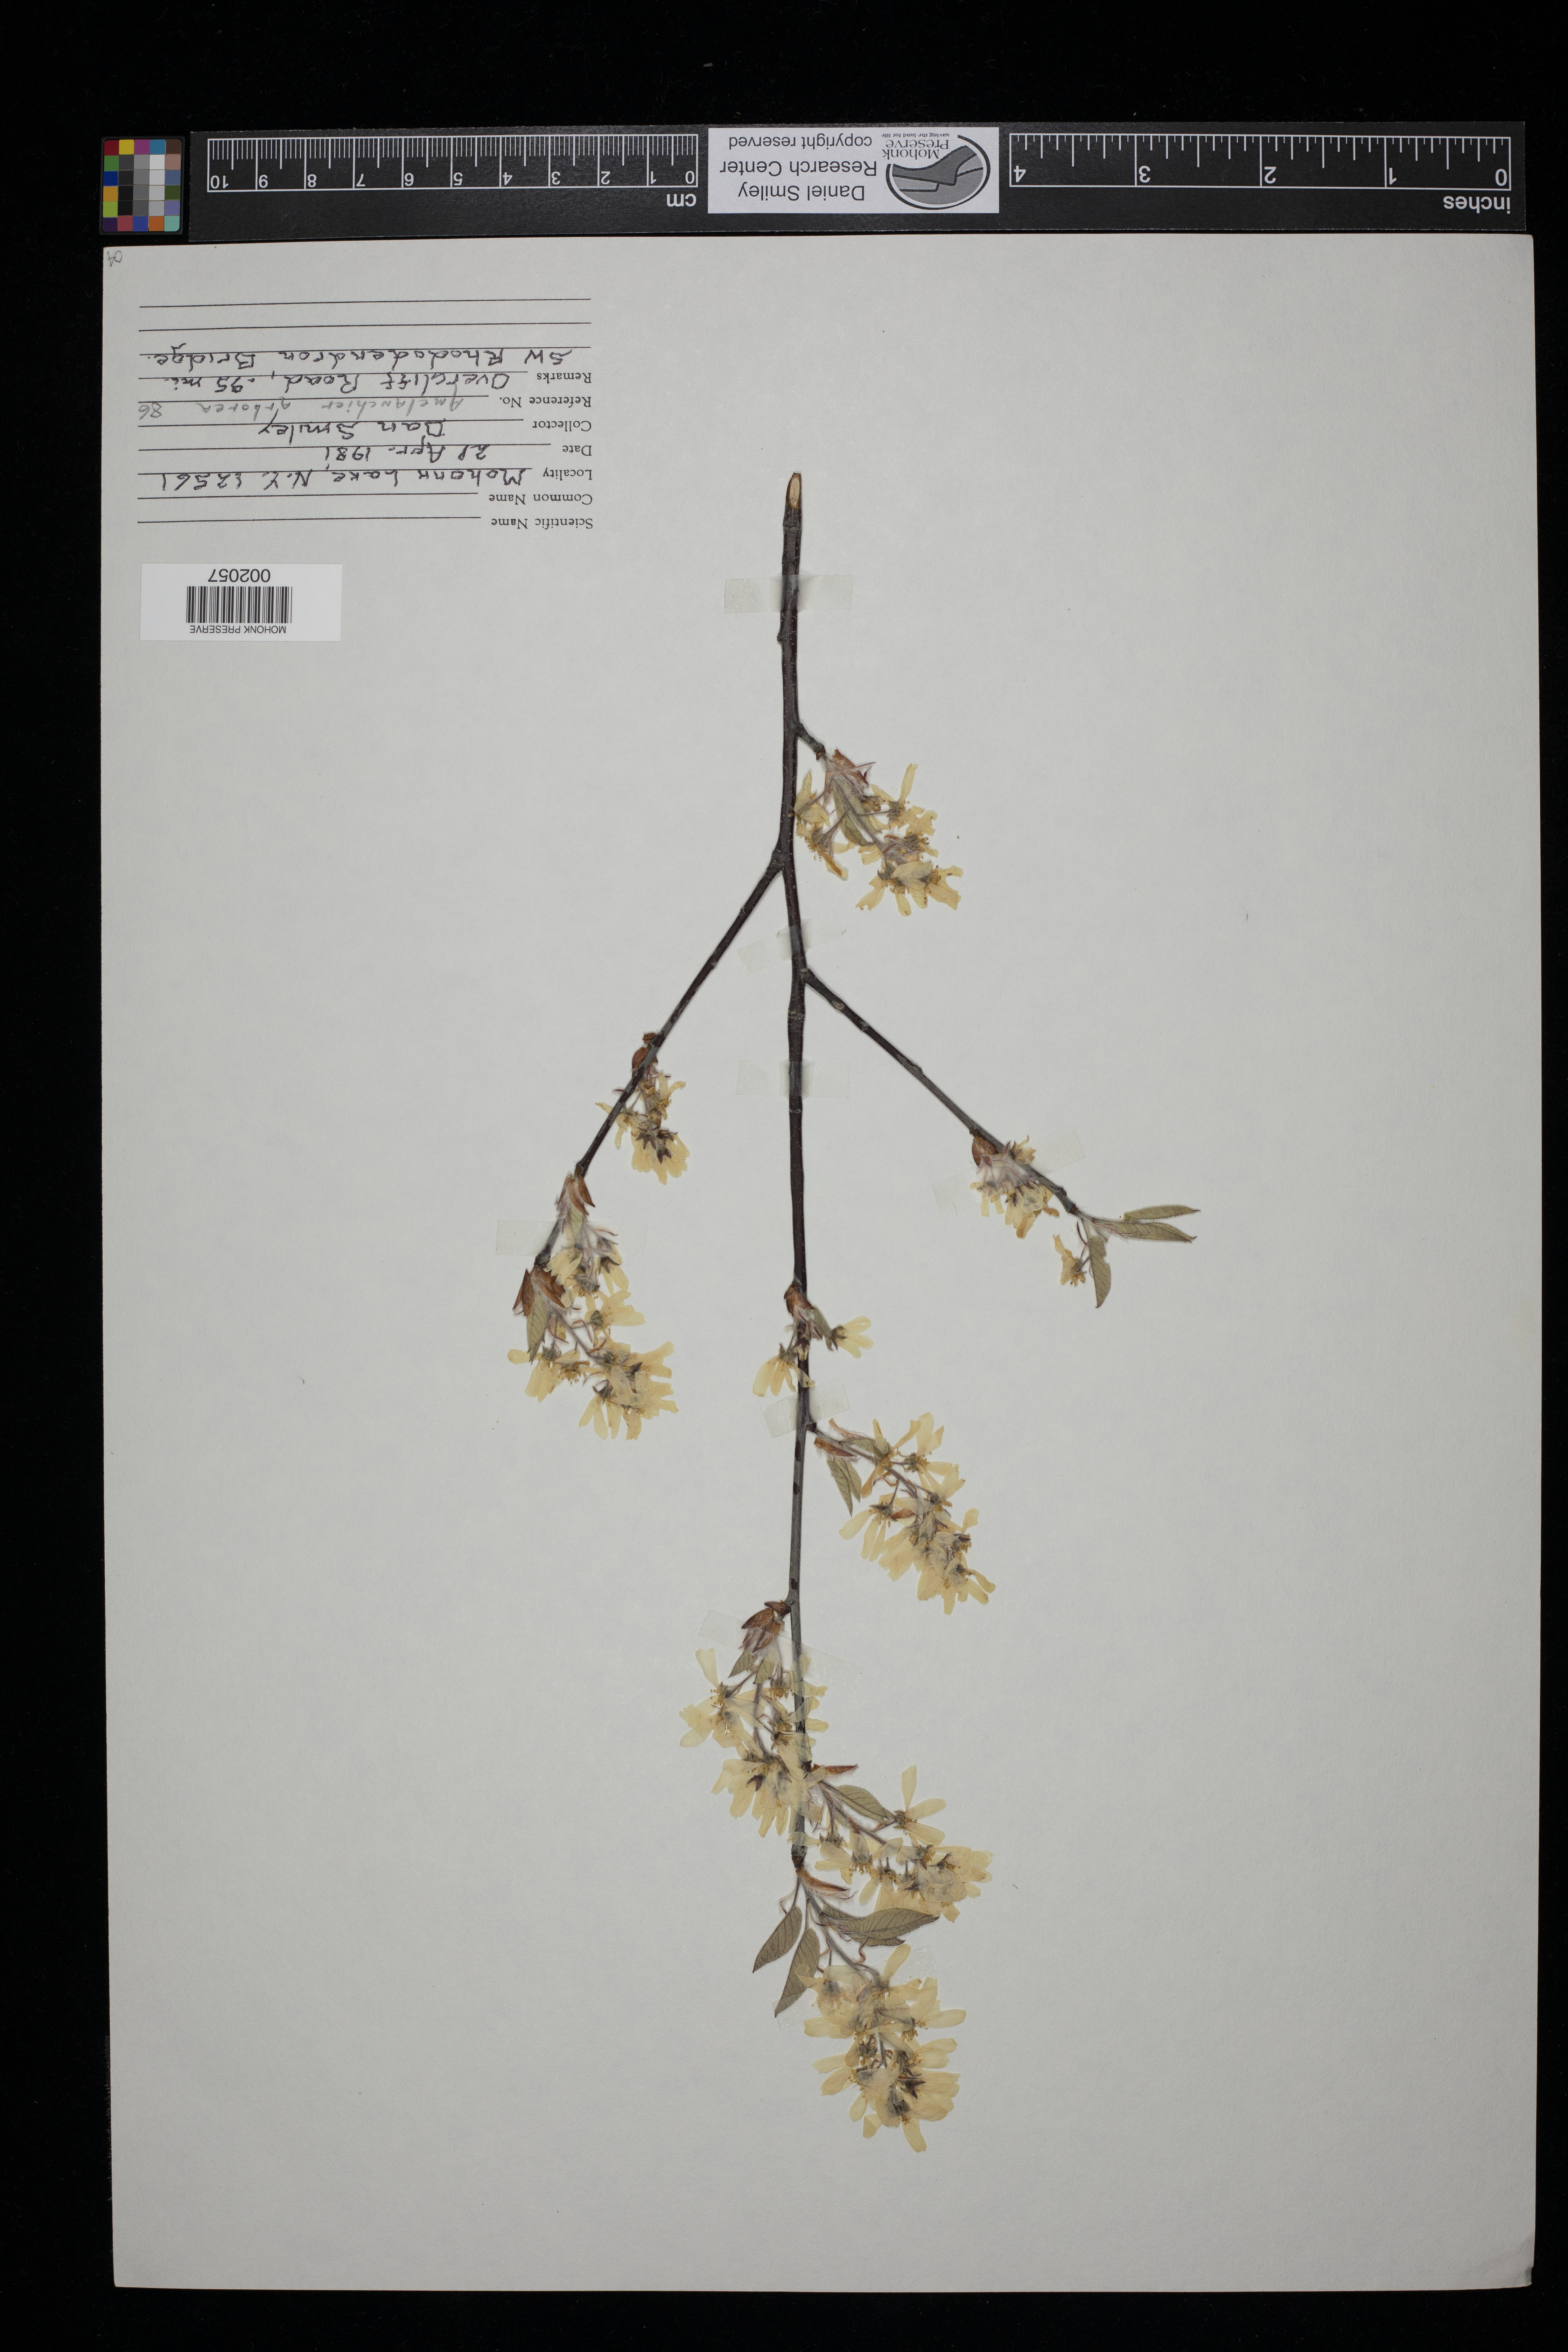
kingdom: Plantae
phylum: Tracheophyta
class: Magnoliopsida
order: Rosales
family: Rosaceae
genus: Amelanchier
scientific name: Amelanchier arborea
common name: Downy serviceberry
